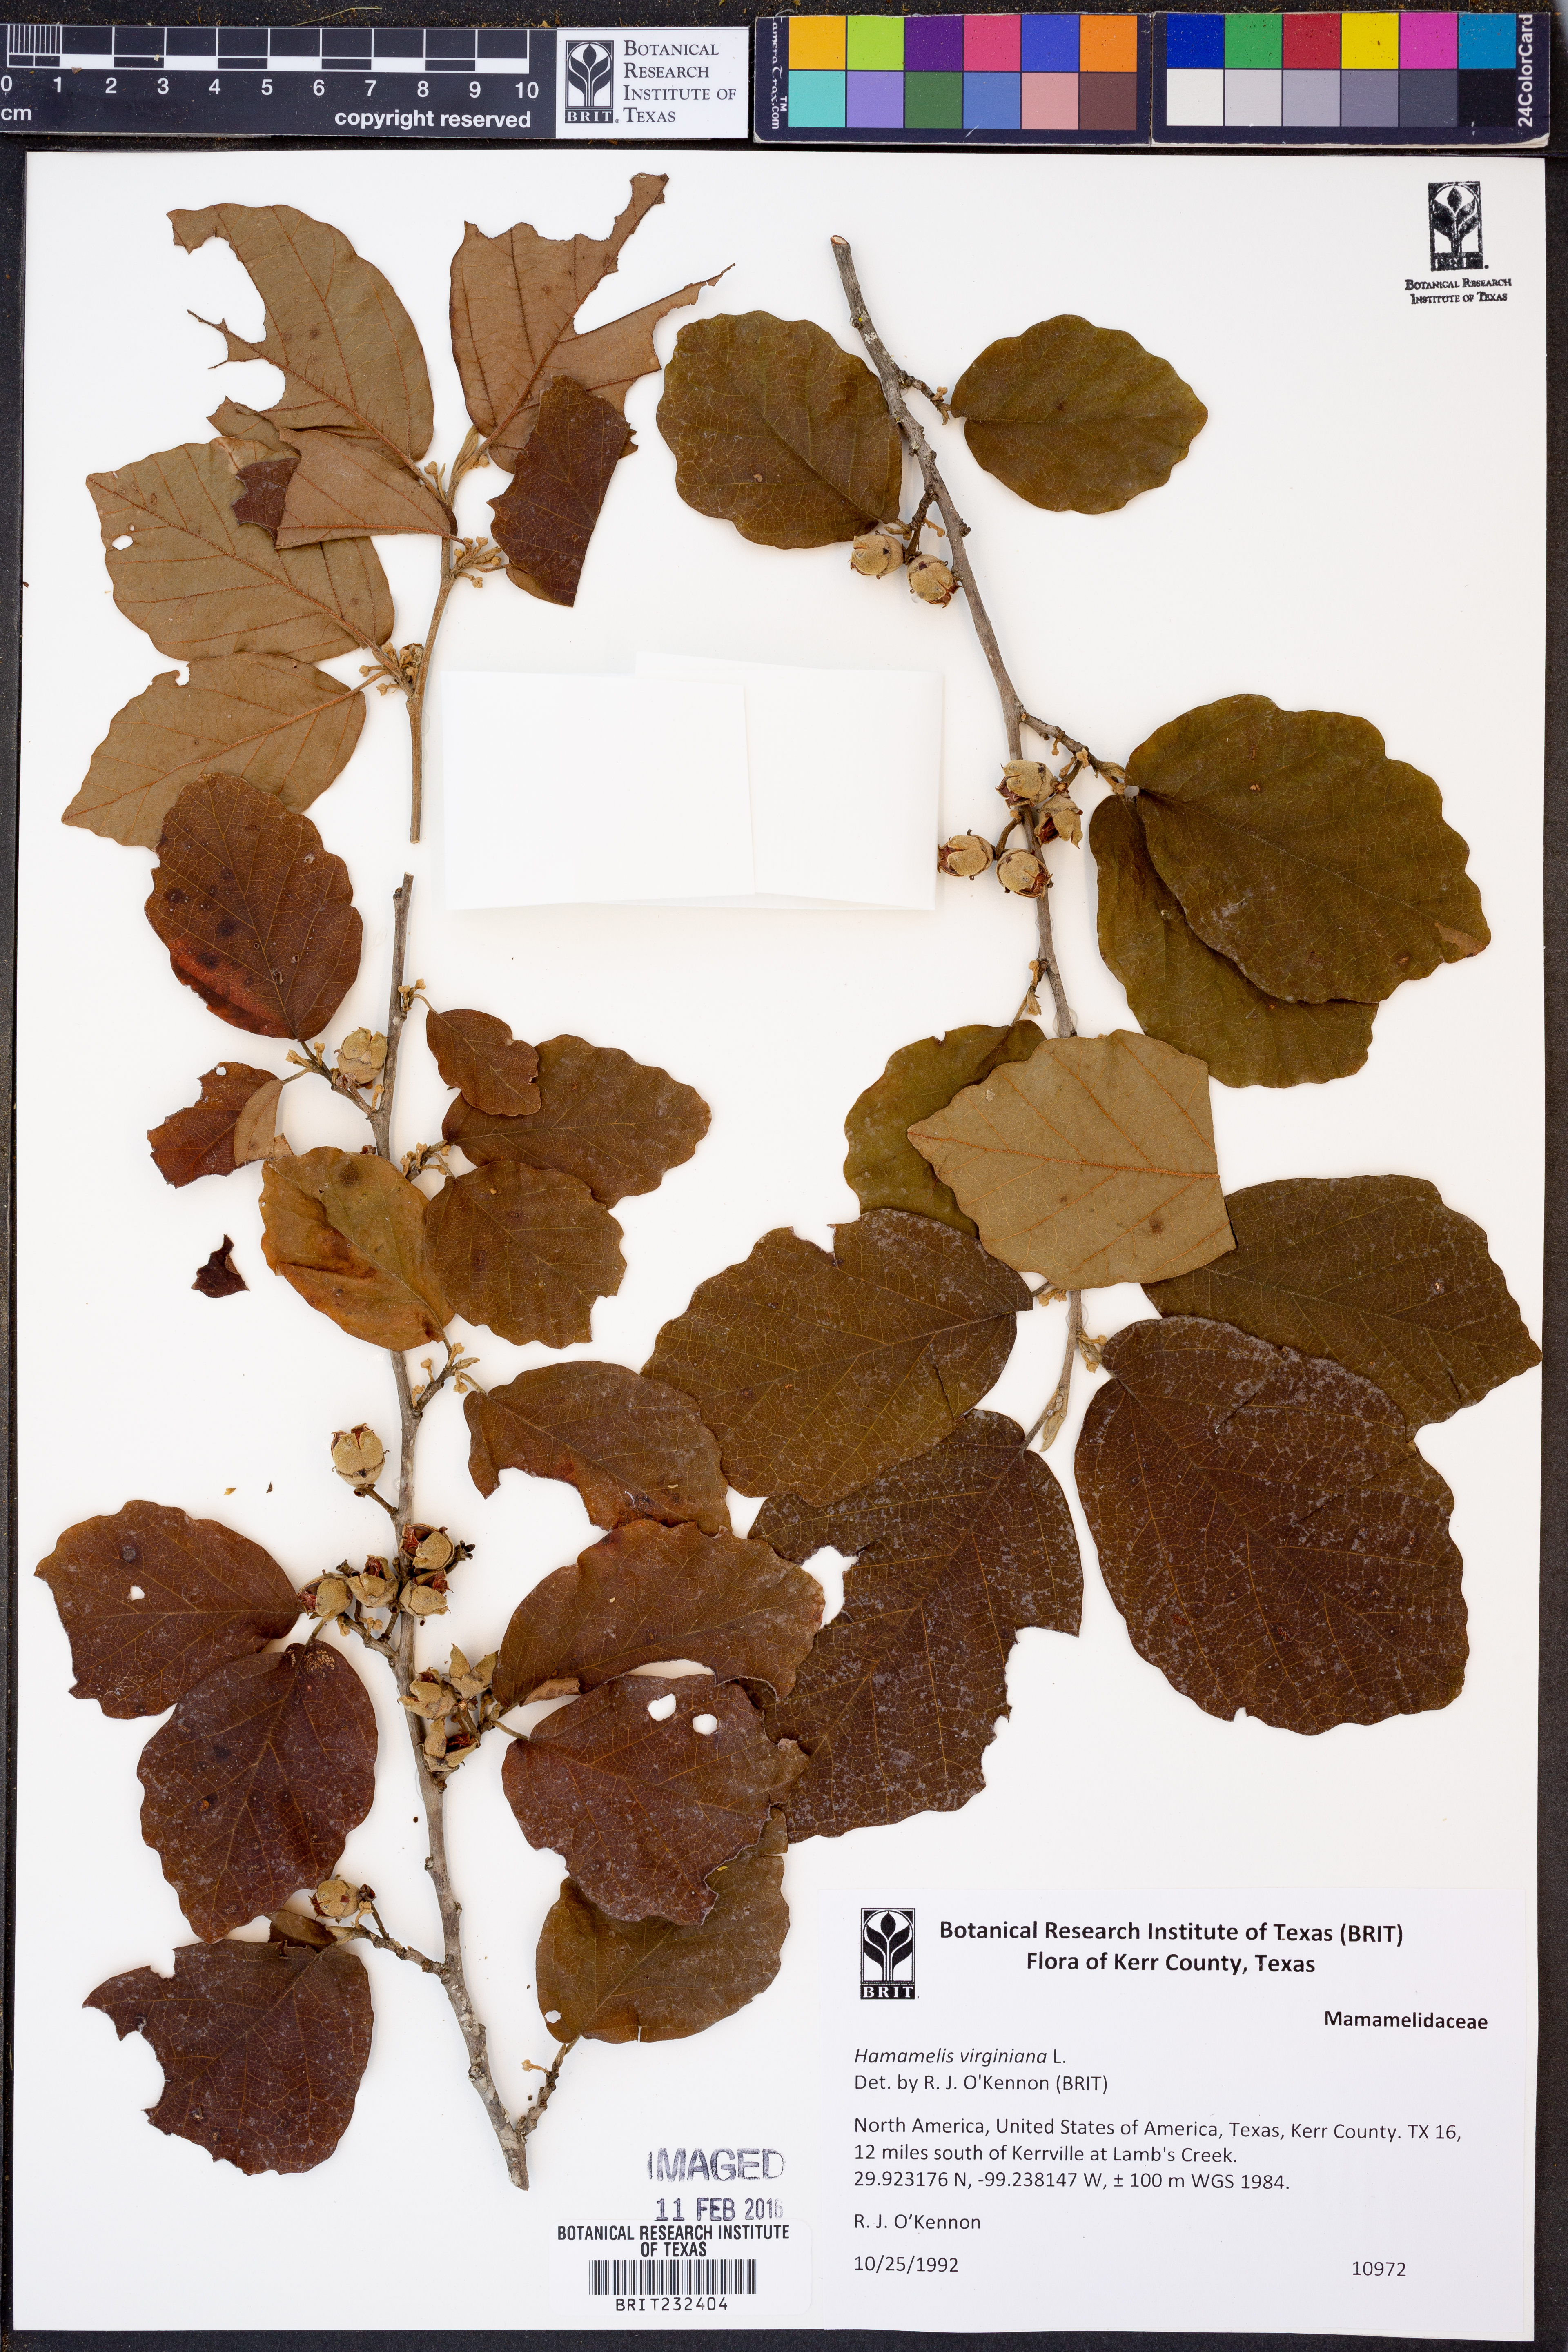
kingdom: Plantae
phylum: Tracheophyta
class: Magnoliopsida
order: Saxifragales
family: Hamamelidaceae
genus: Hamamelis
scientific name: Hamamelis virginiana
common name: Witch-hazel
